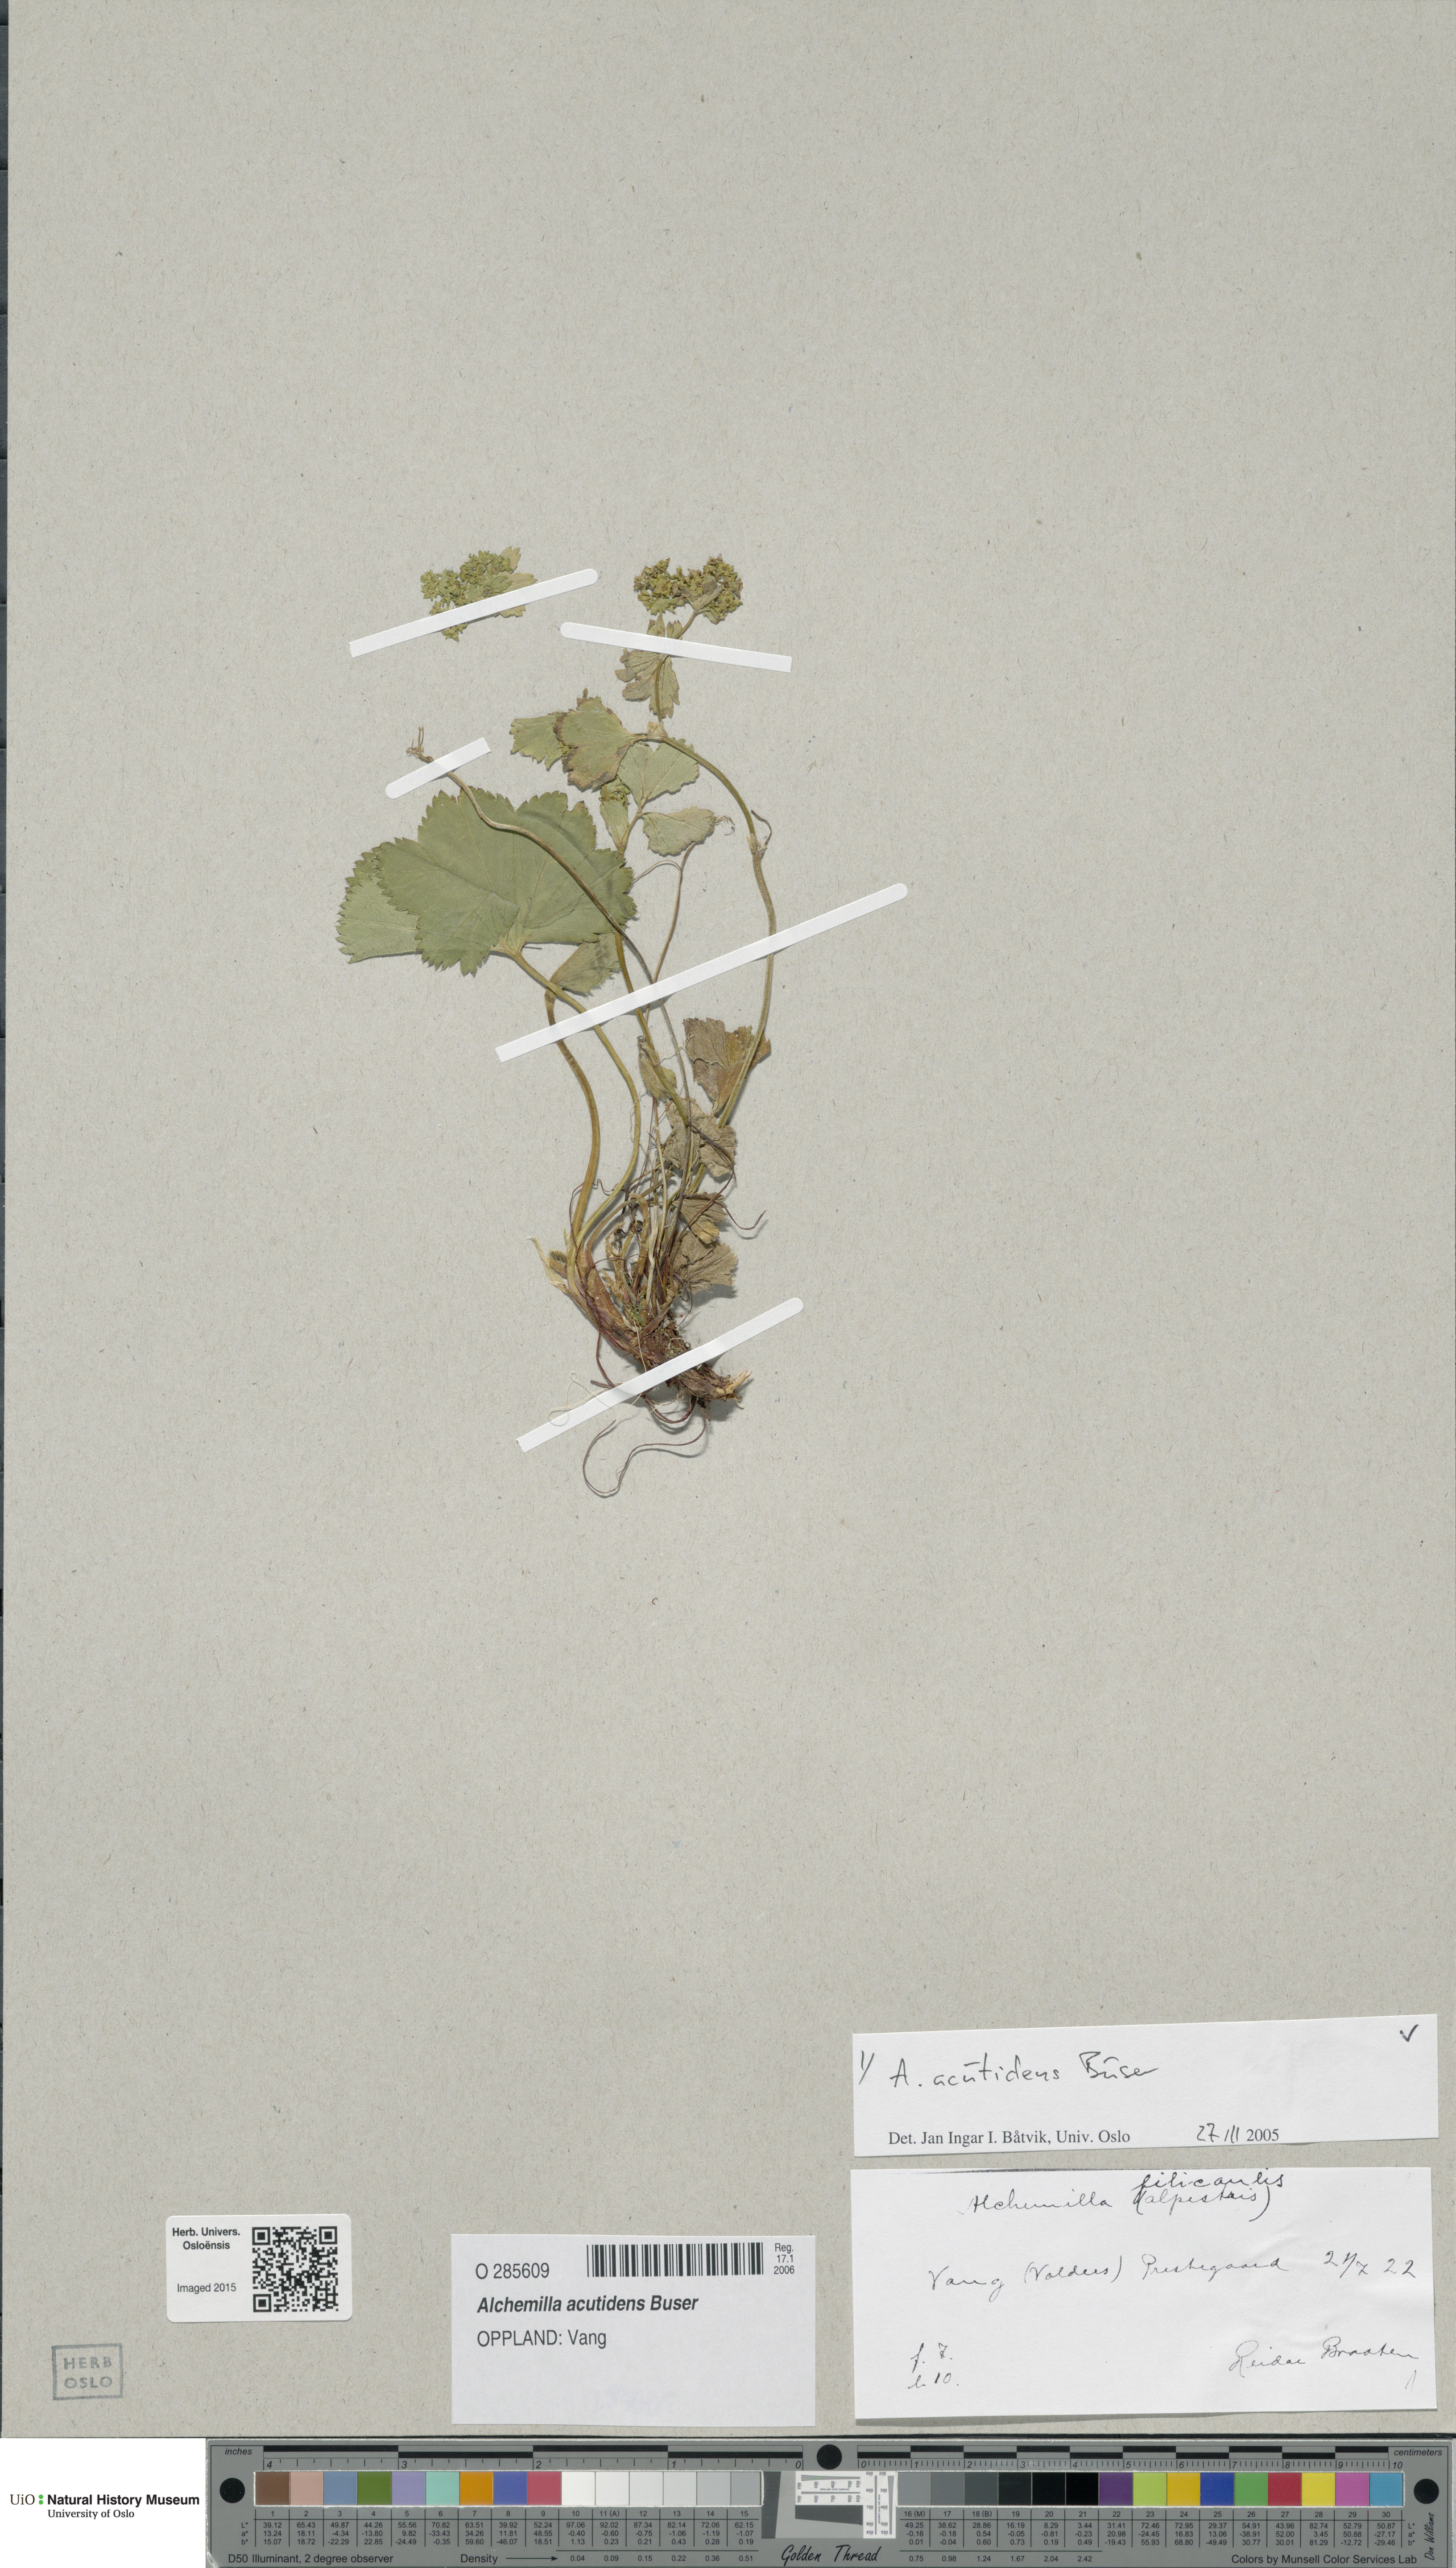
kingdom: Plantae
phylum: Tracheophyta
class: Magnoliopsida
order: Rosales
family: Rosaceae
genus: Alchemilla
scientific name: Alchemilla wichurae
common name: Rock lady's mantle
